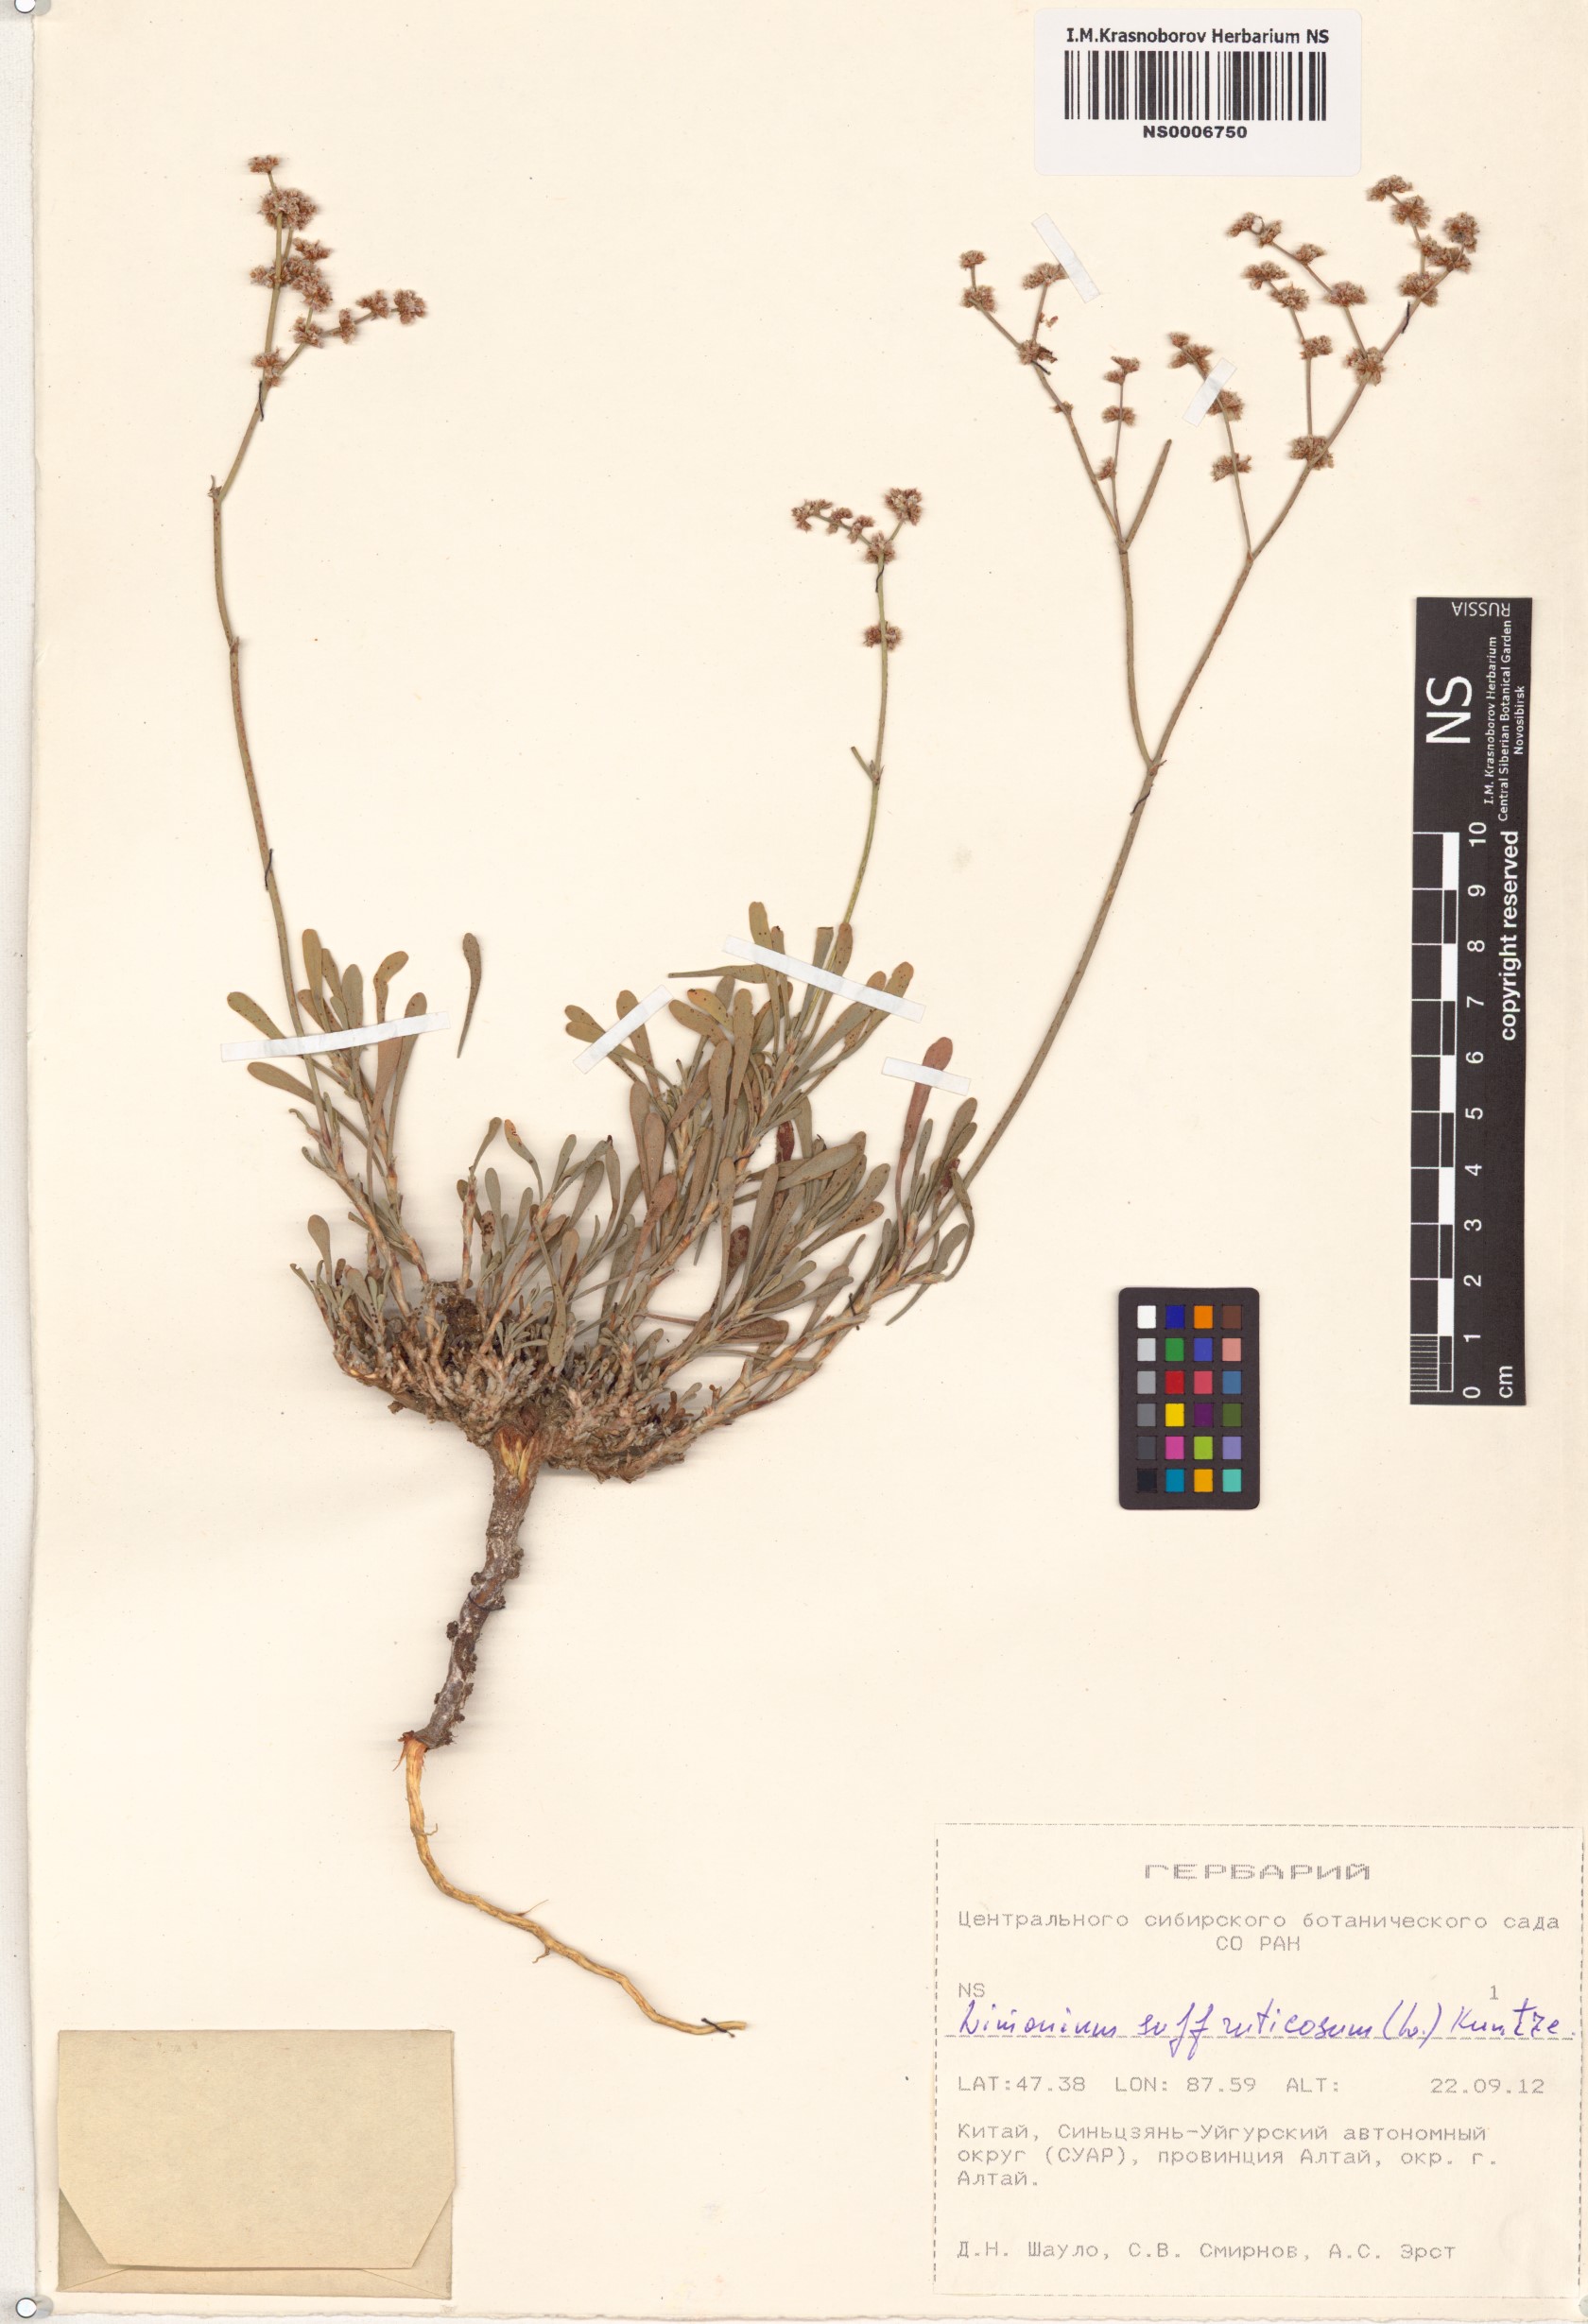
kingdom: Plantae
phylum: Tracheophyta
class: Magnoliopsida
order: Caryophyllales
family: Plumbaginaceae
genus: Limonium
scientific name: Limonium suffruticosum
